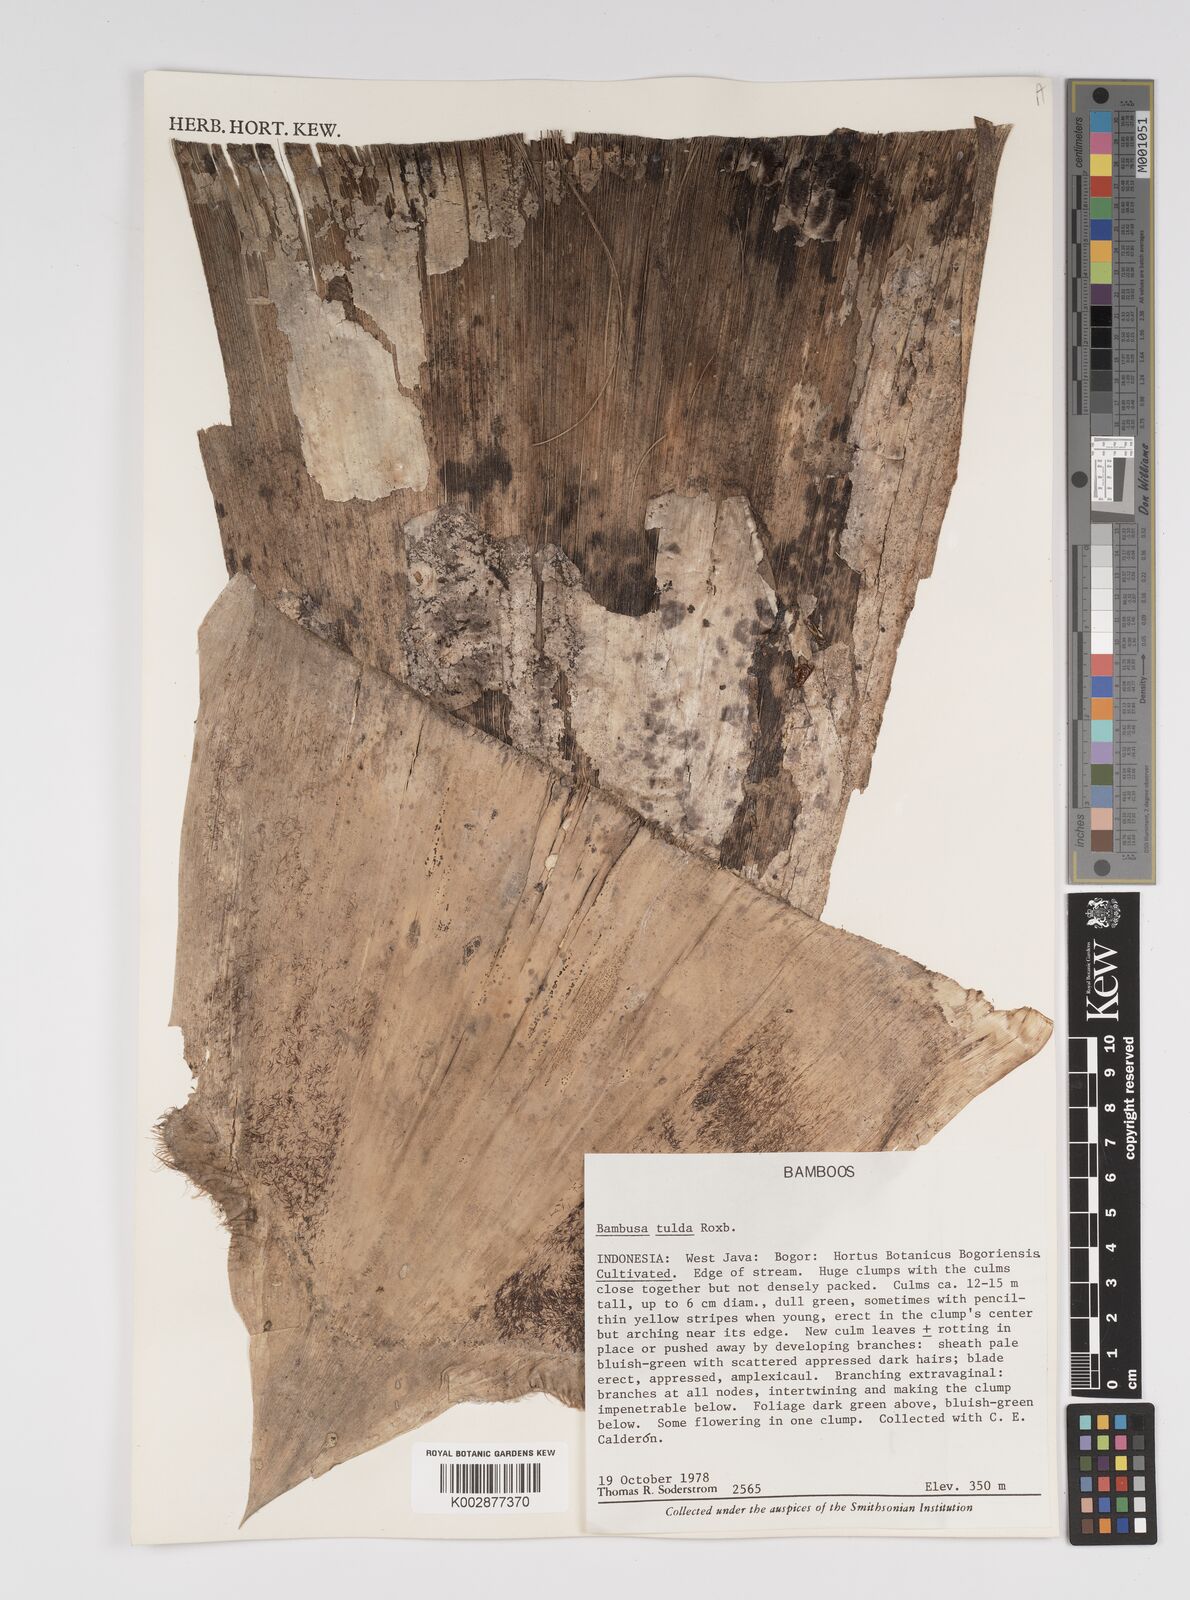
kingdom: Plantae
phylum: Tracheophyta
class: Liliopsida
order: Poales
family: Poaceae
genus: Bambusa
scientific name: Bambusa tulda
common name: Bengal bamboo
